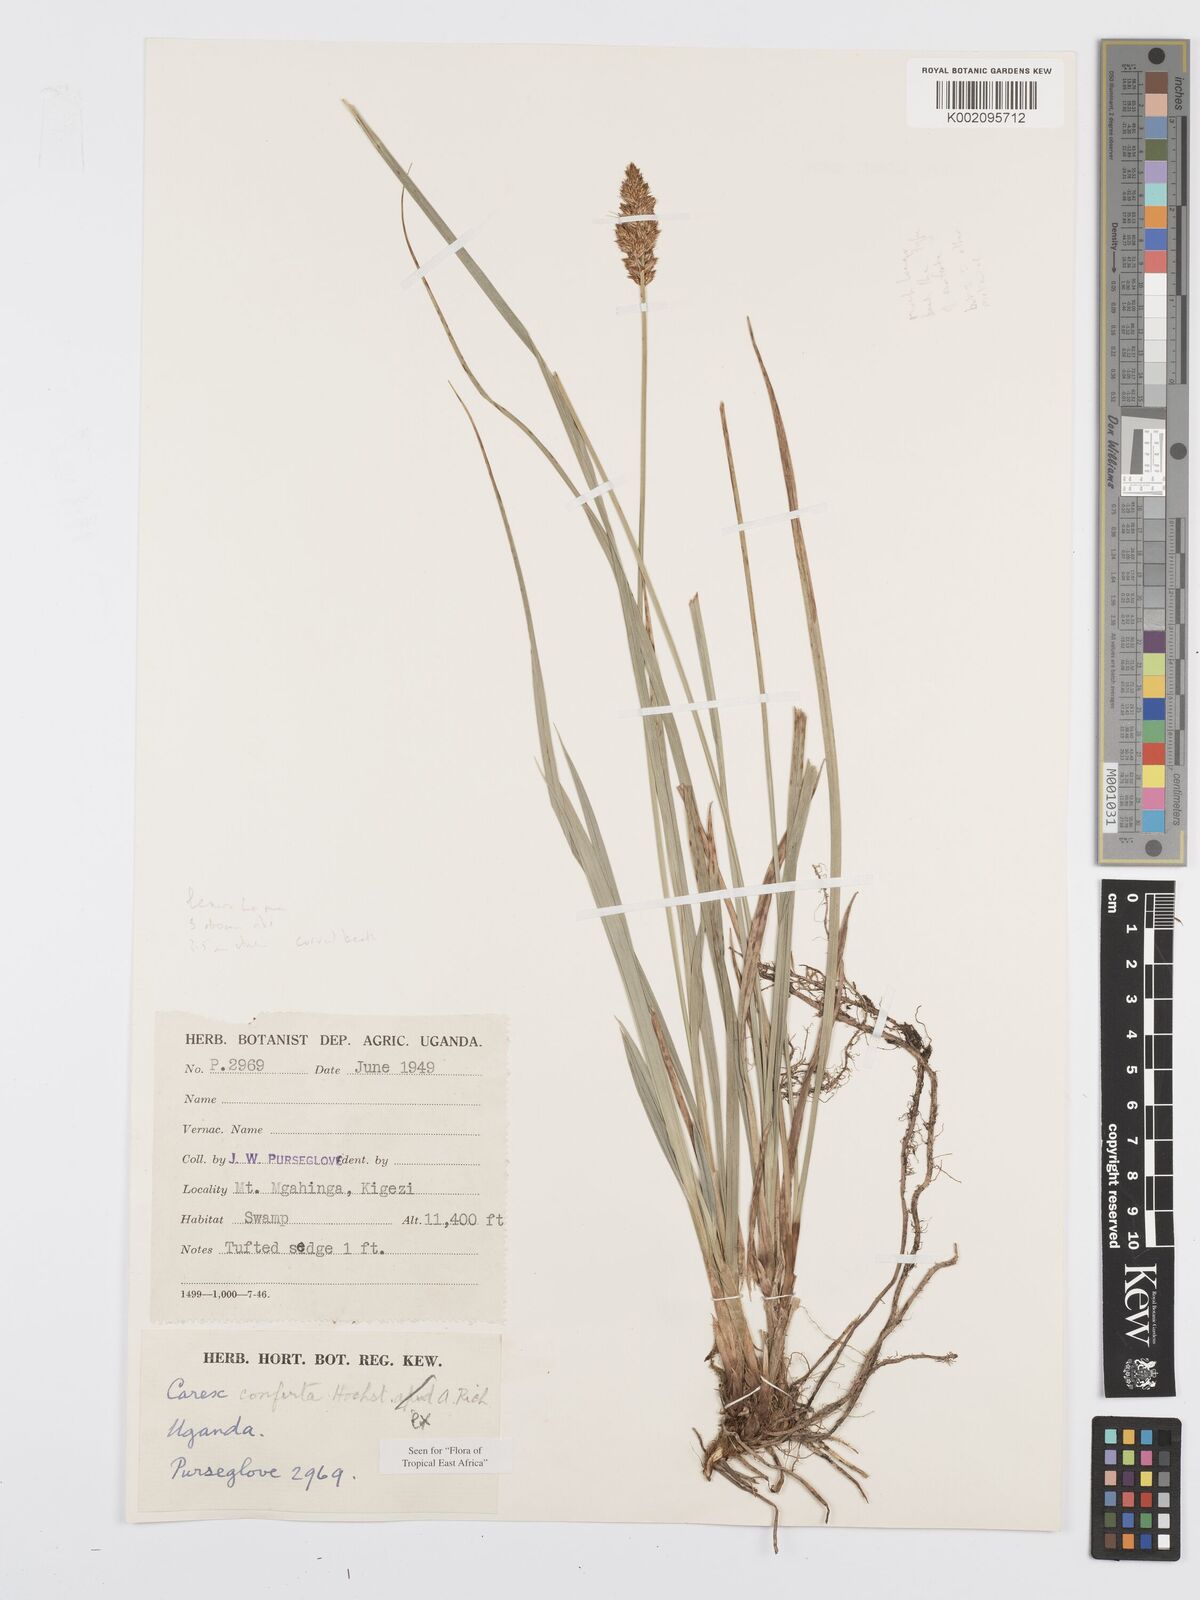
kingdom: Plantae
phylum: Tracheophyta
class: Liliopsida
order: Poales
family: Cyperaceae
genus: Carex
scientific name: Carex conferta
